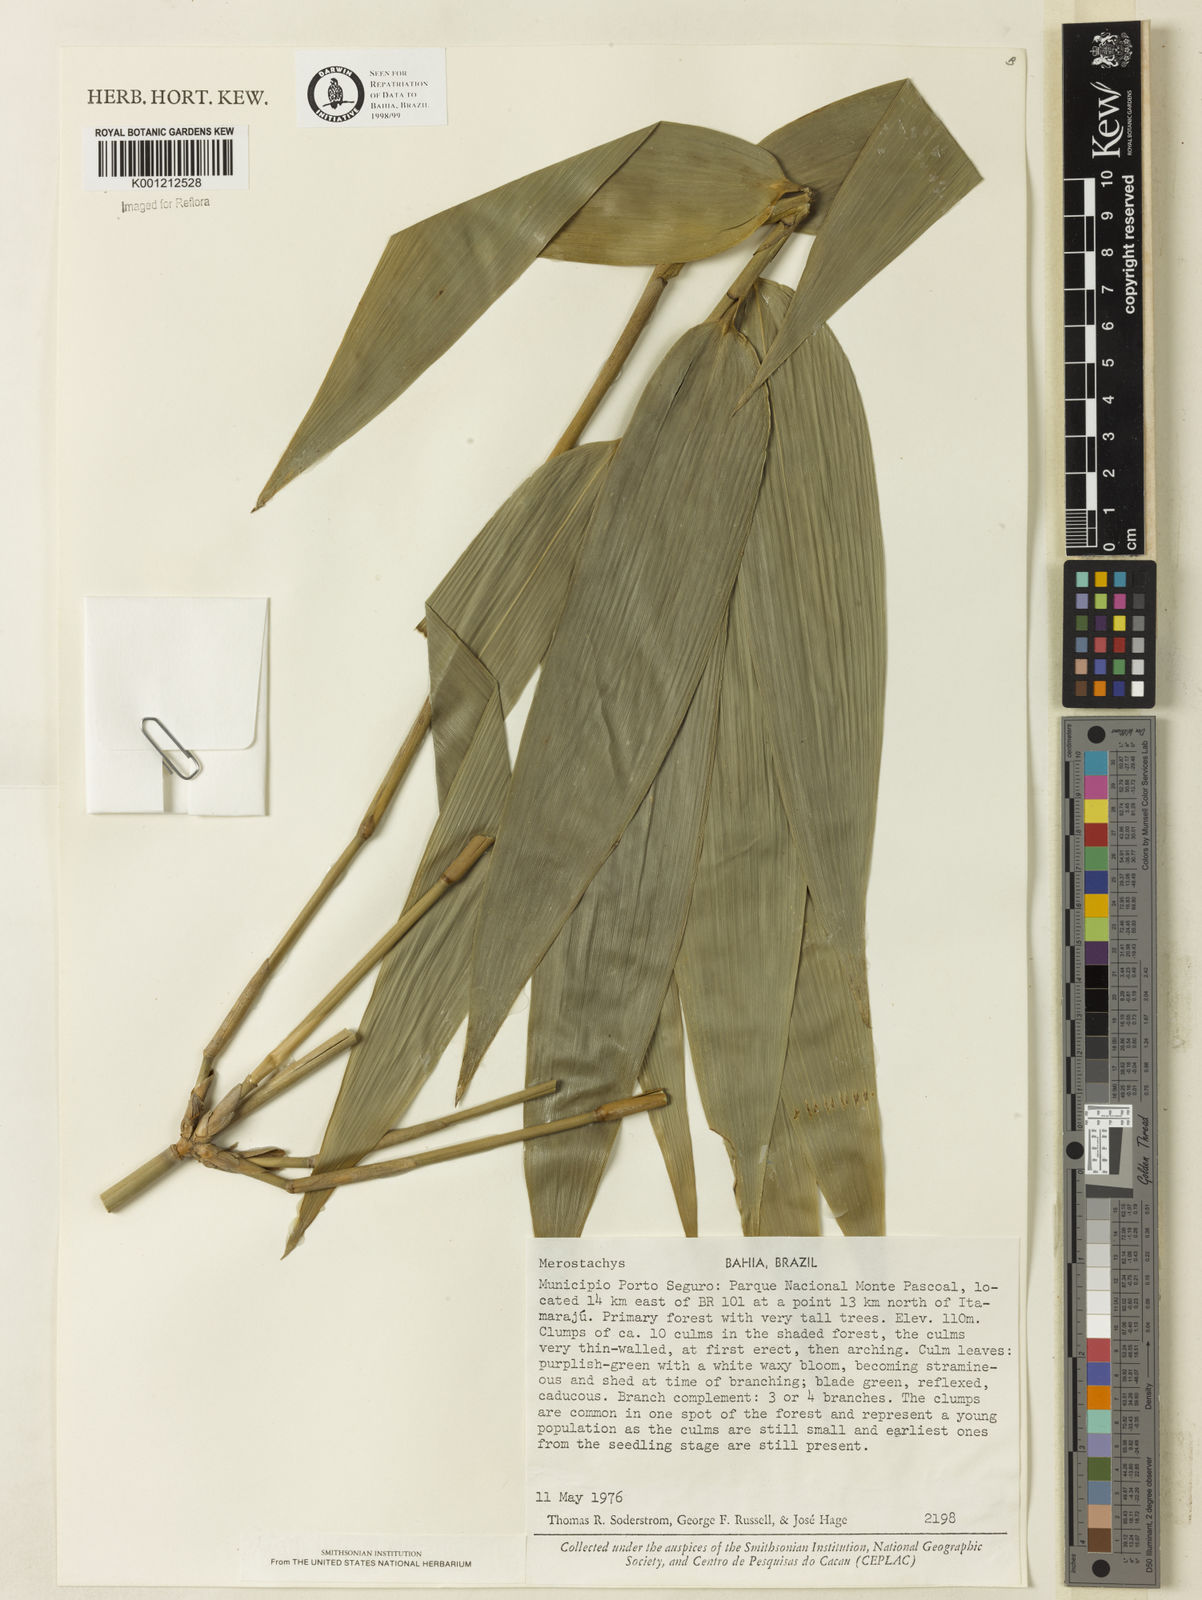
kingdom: Plantae
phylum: Tracheophyta
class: Liliopsida
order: Poales
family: Poaceae
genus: Merostachys
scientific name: Merostachys procerrima
